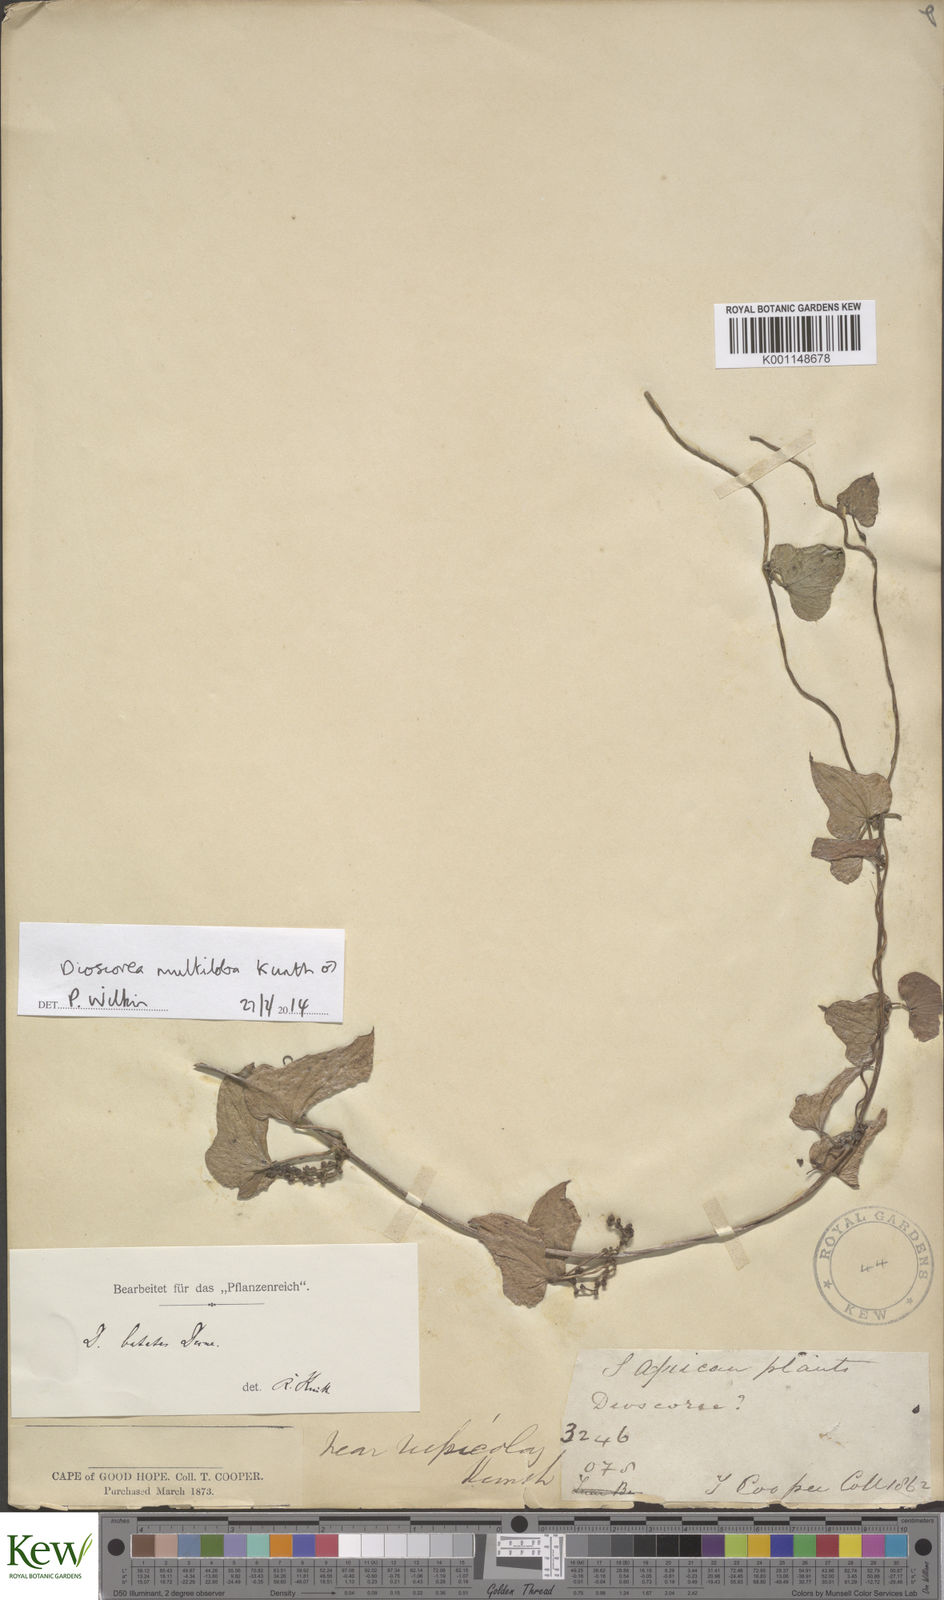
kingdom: Plantae
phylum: Tracheophyta
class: Liliopsida
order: Dioscoreales
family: Dioscoreaceae
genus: Dioscorea
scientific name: Dioscorea multiloba
